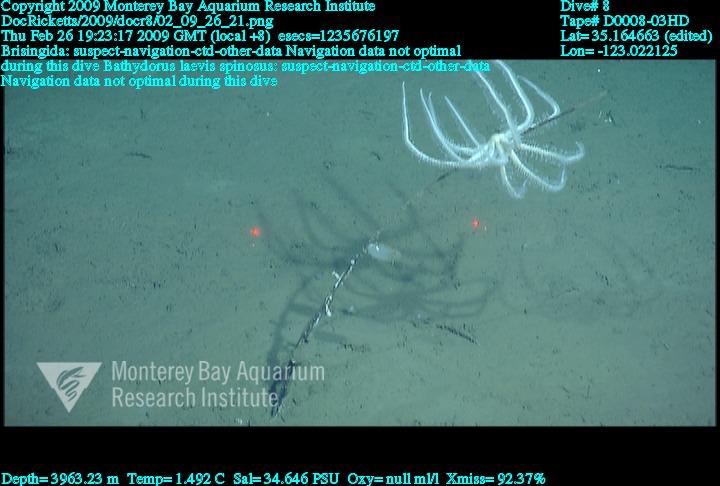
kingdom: Animalia
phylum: Porifera
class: Hexactinellida
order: Lyssacinosida
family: Rossellidae
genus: Bathydorus
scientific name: Bathydorus spinosus
